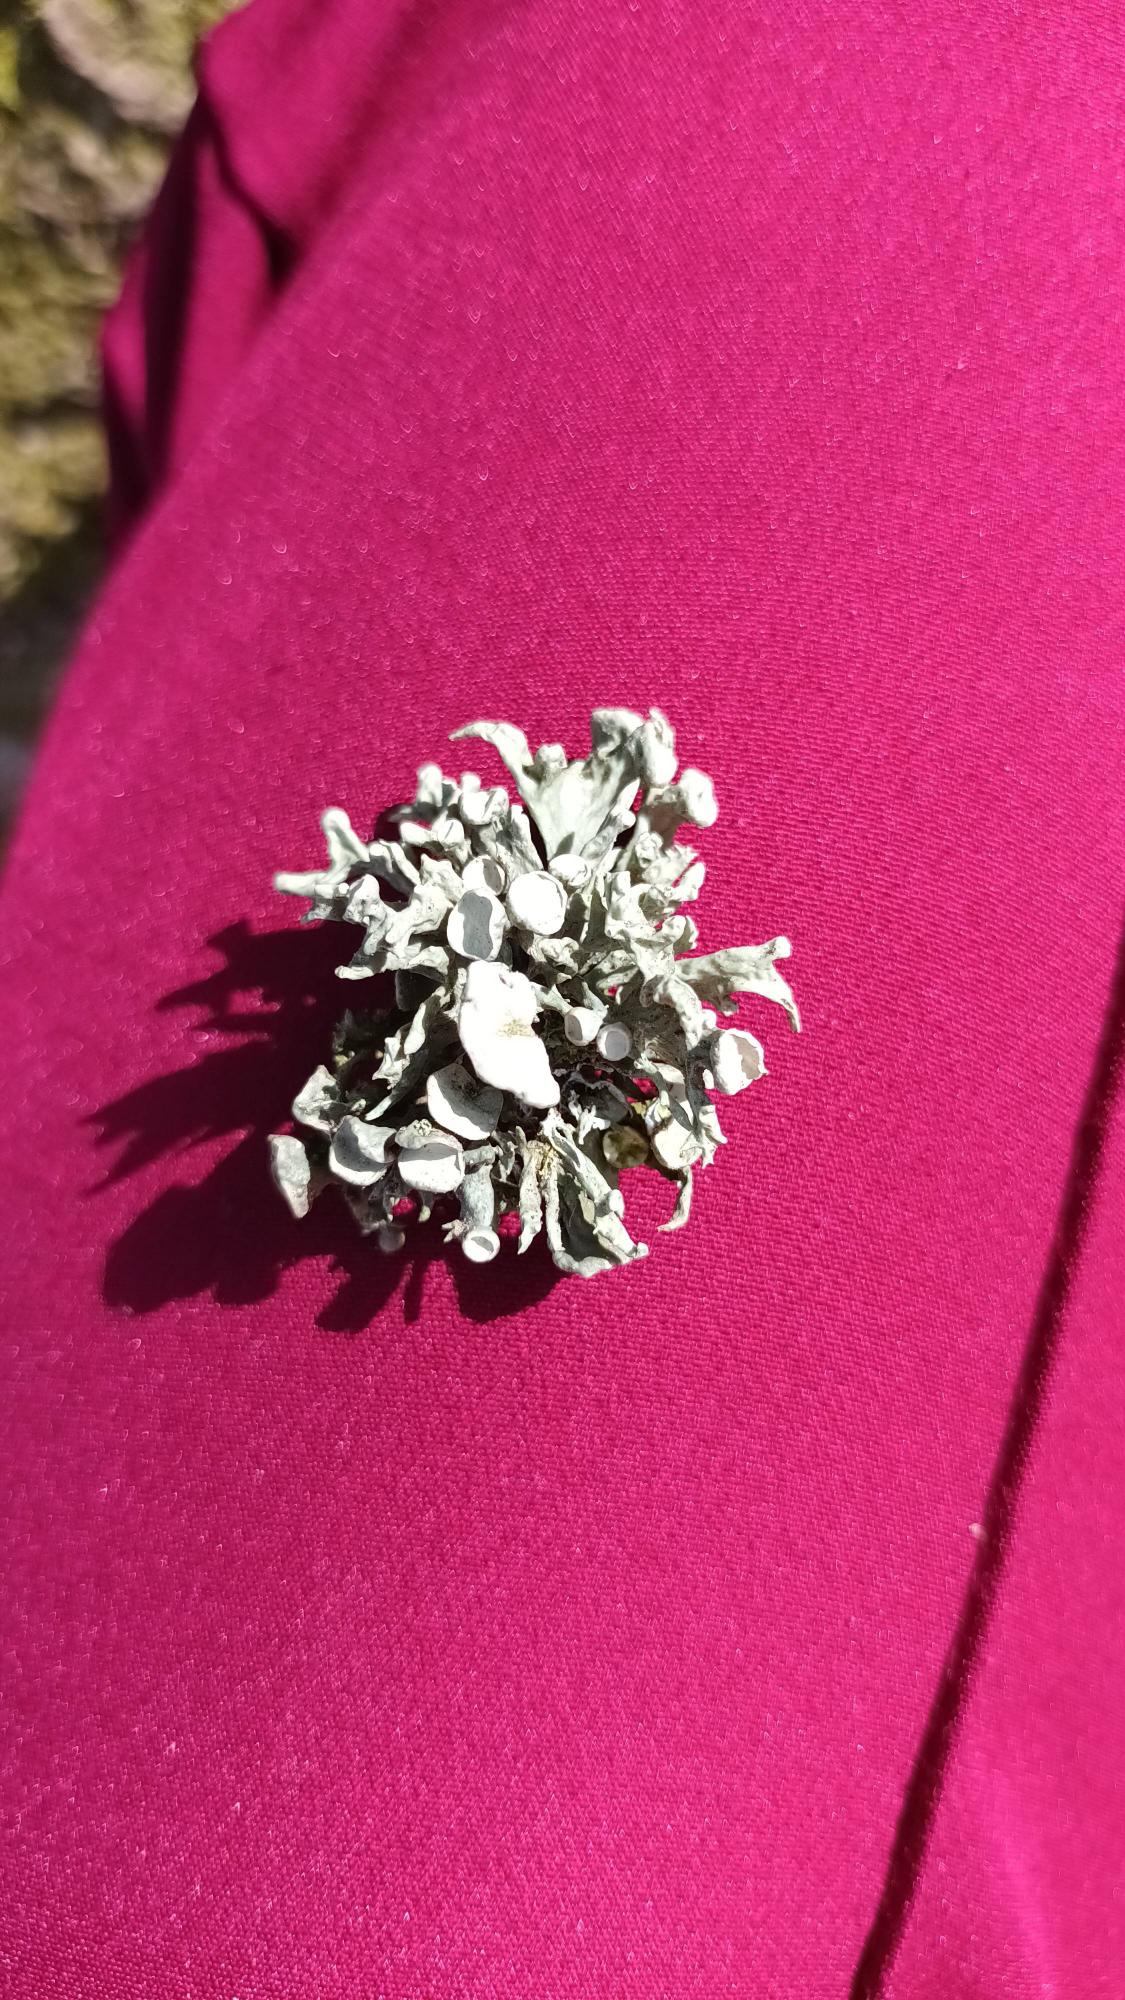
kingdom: Fungi
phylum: Ascomycota
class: Lecanoromycetes
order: Lecanorales
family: Ramalinaceae
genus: Ramalina
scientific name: Ramalina fastigiata
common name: Tue-grenlav
